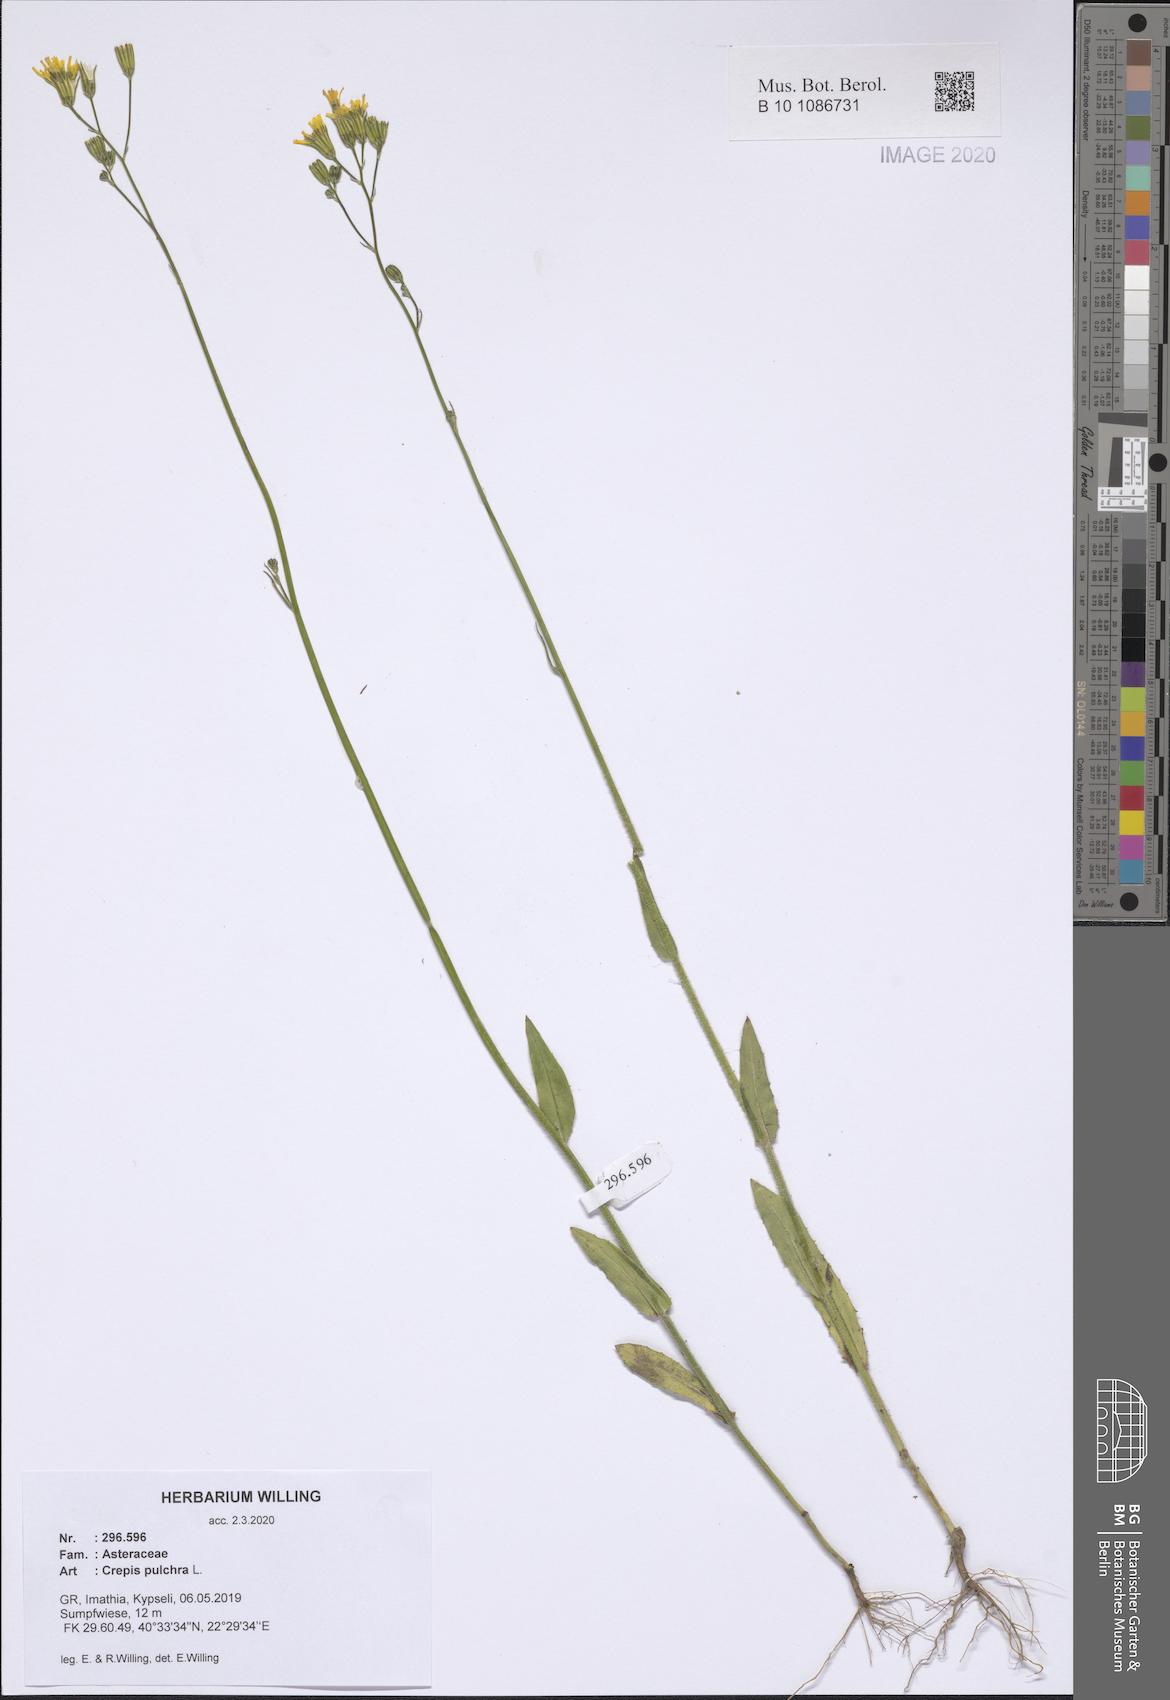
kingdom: Plantae
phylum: Tracheophyta
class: Magnoliopsida
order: Asterales
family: Asteraceae
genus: Crepis
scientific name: Crepis pulchra
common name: Hawk's-beard
